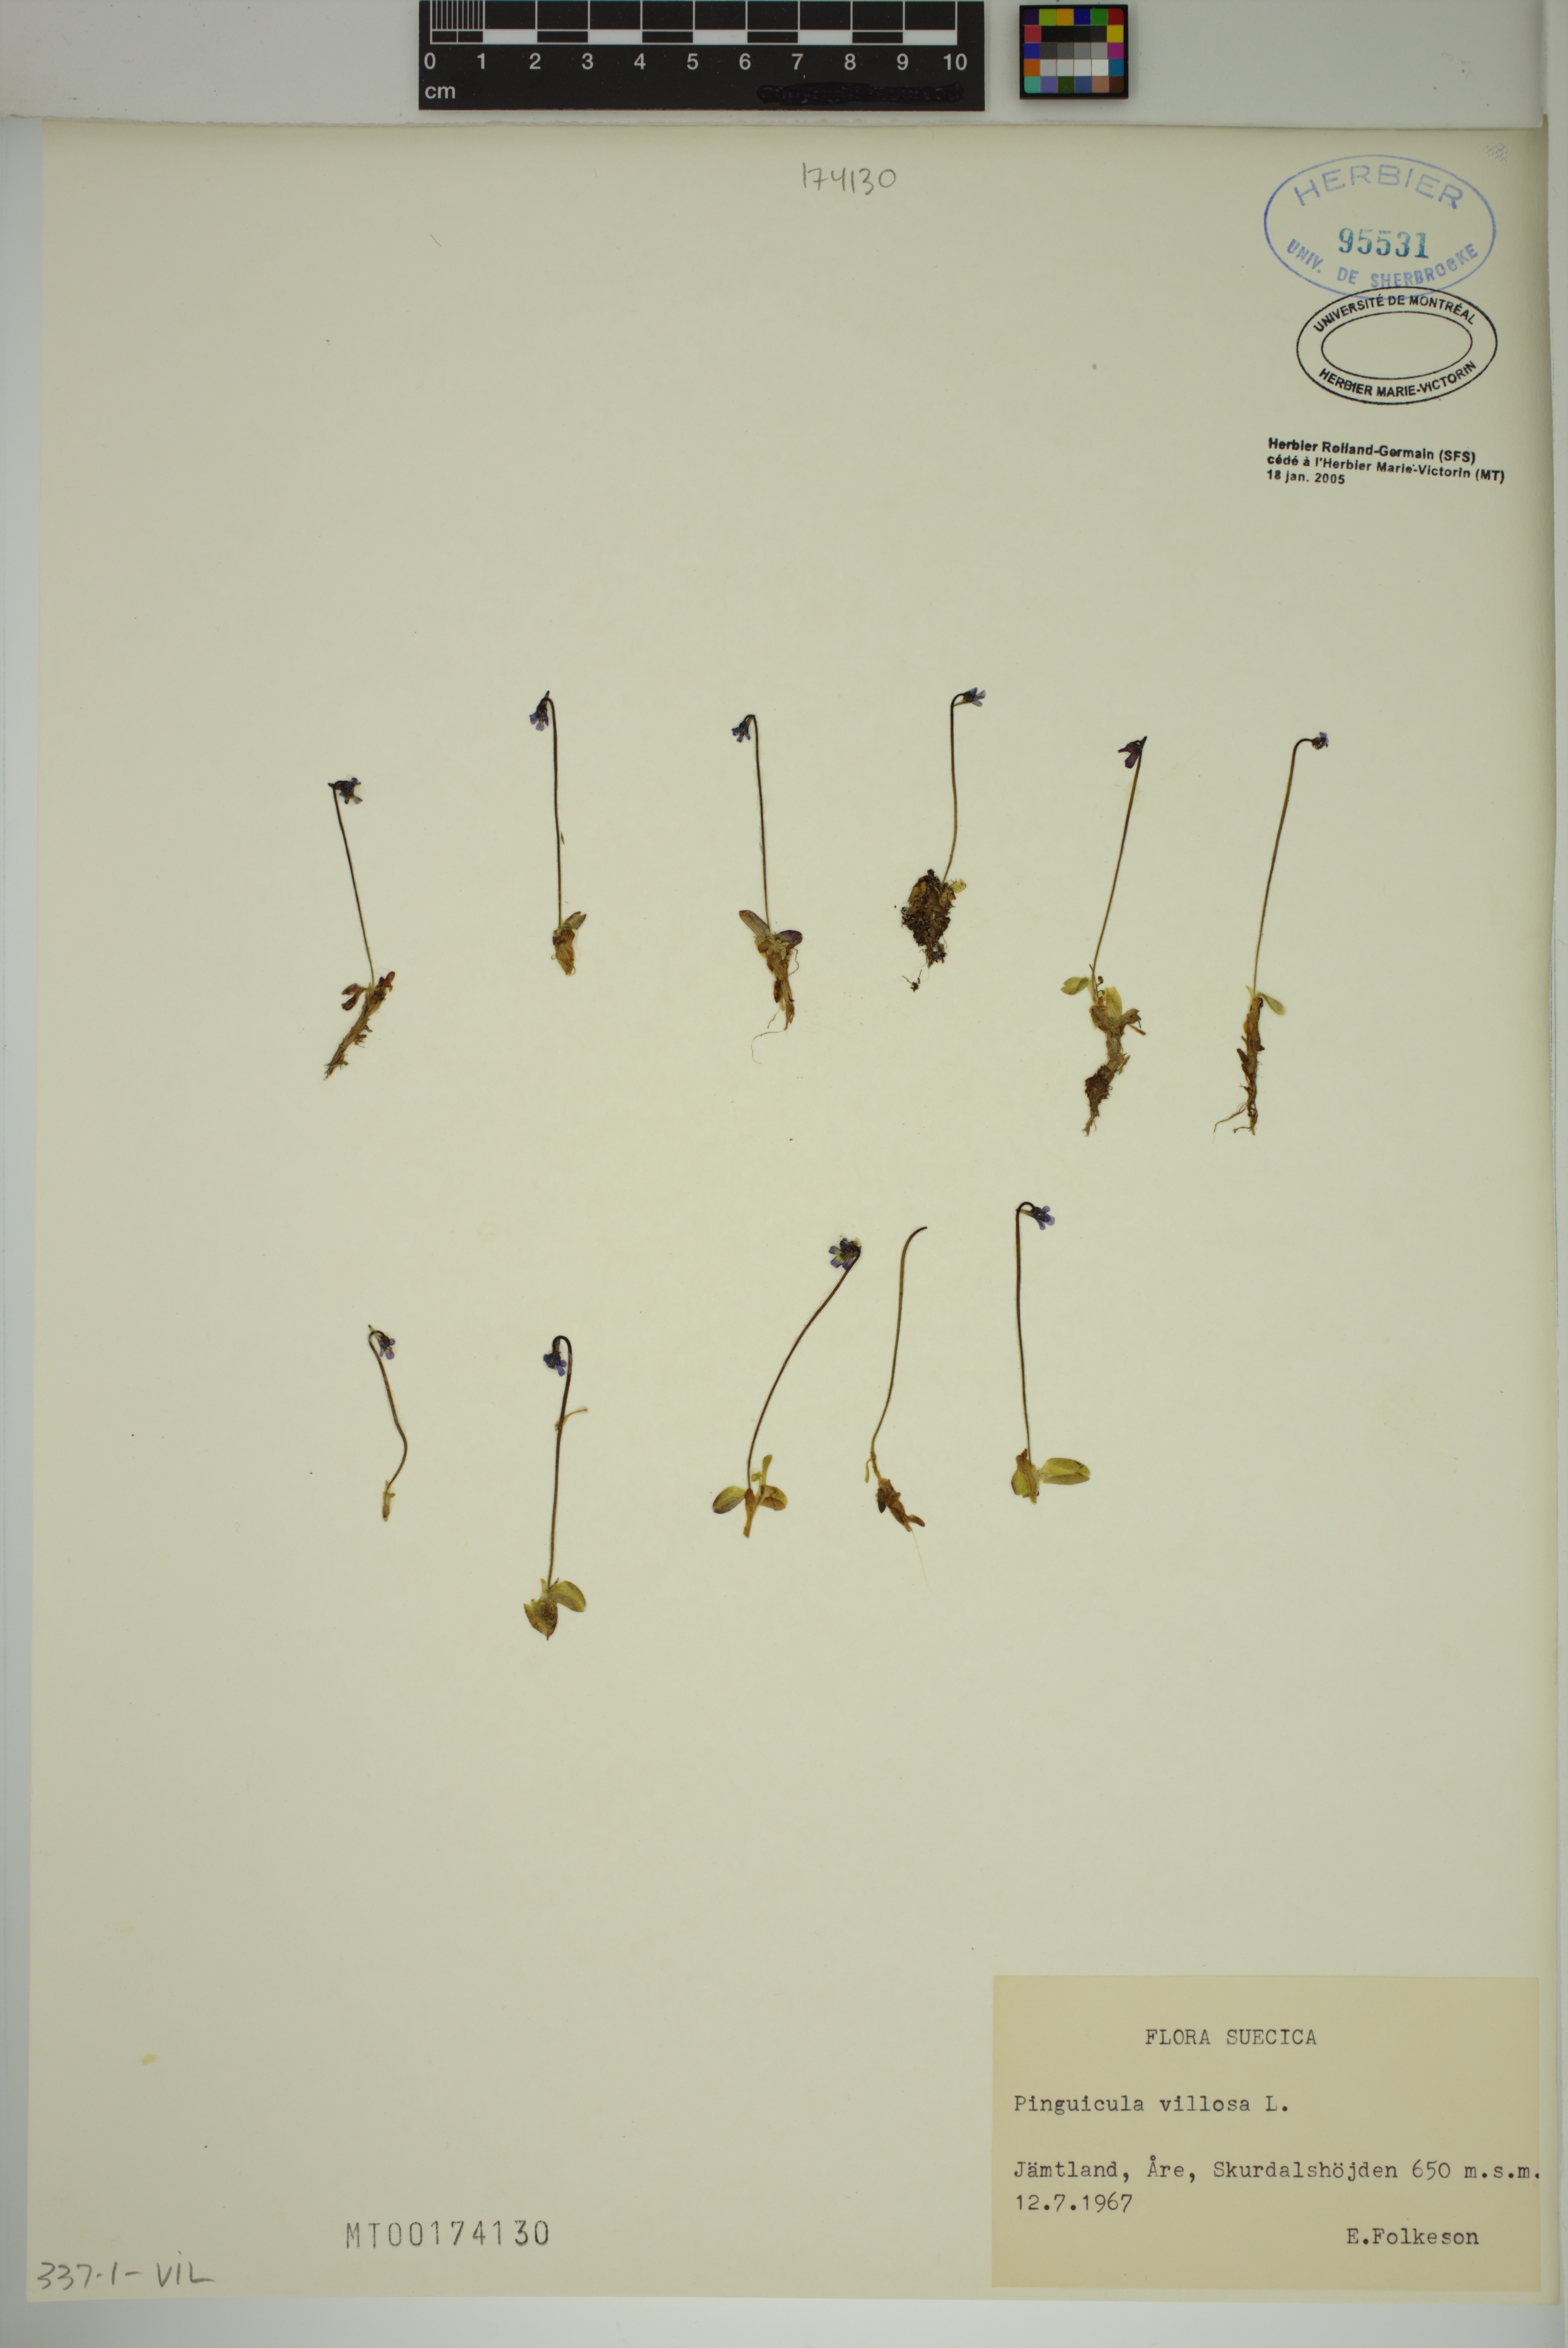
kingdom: Plantae
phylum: Tracheophyta
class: Magnoliopsida
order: Lamiales
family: Lentibulariaceae
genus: Pinguicula
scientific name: Pinguicula villosa
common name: Hairy butterwort
